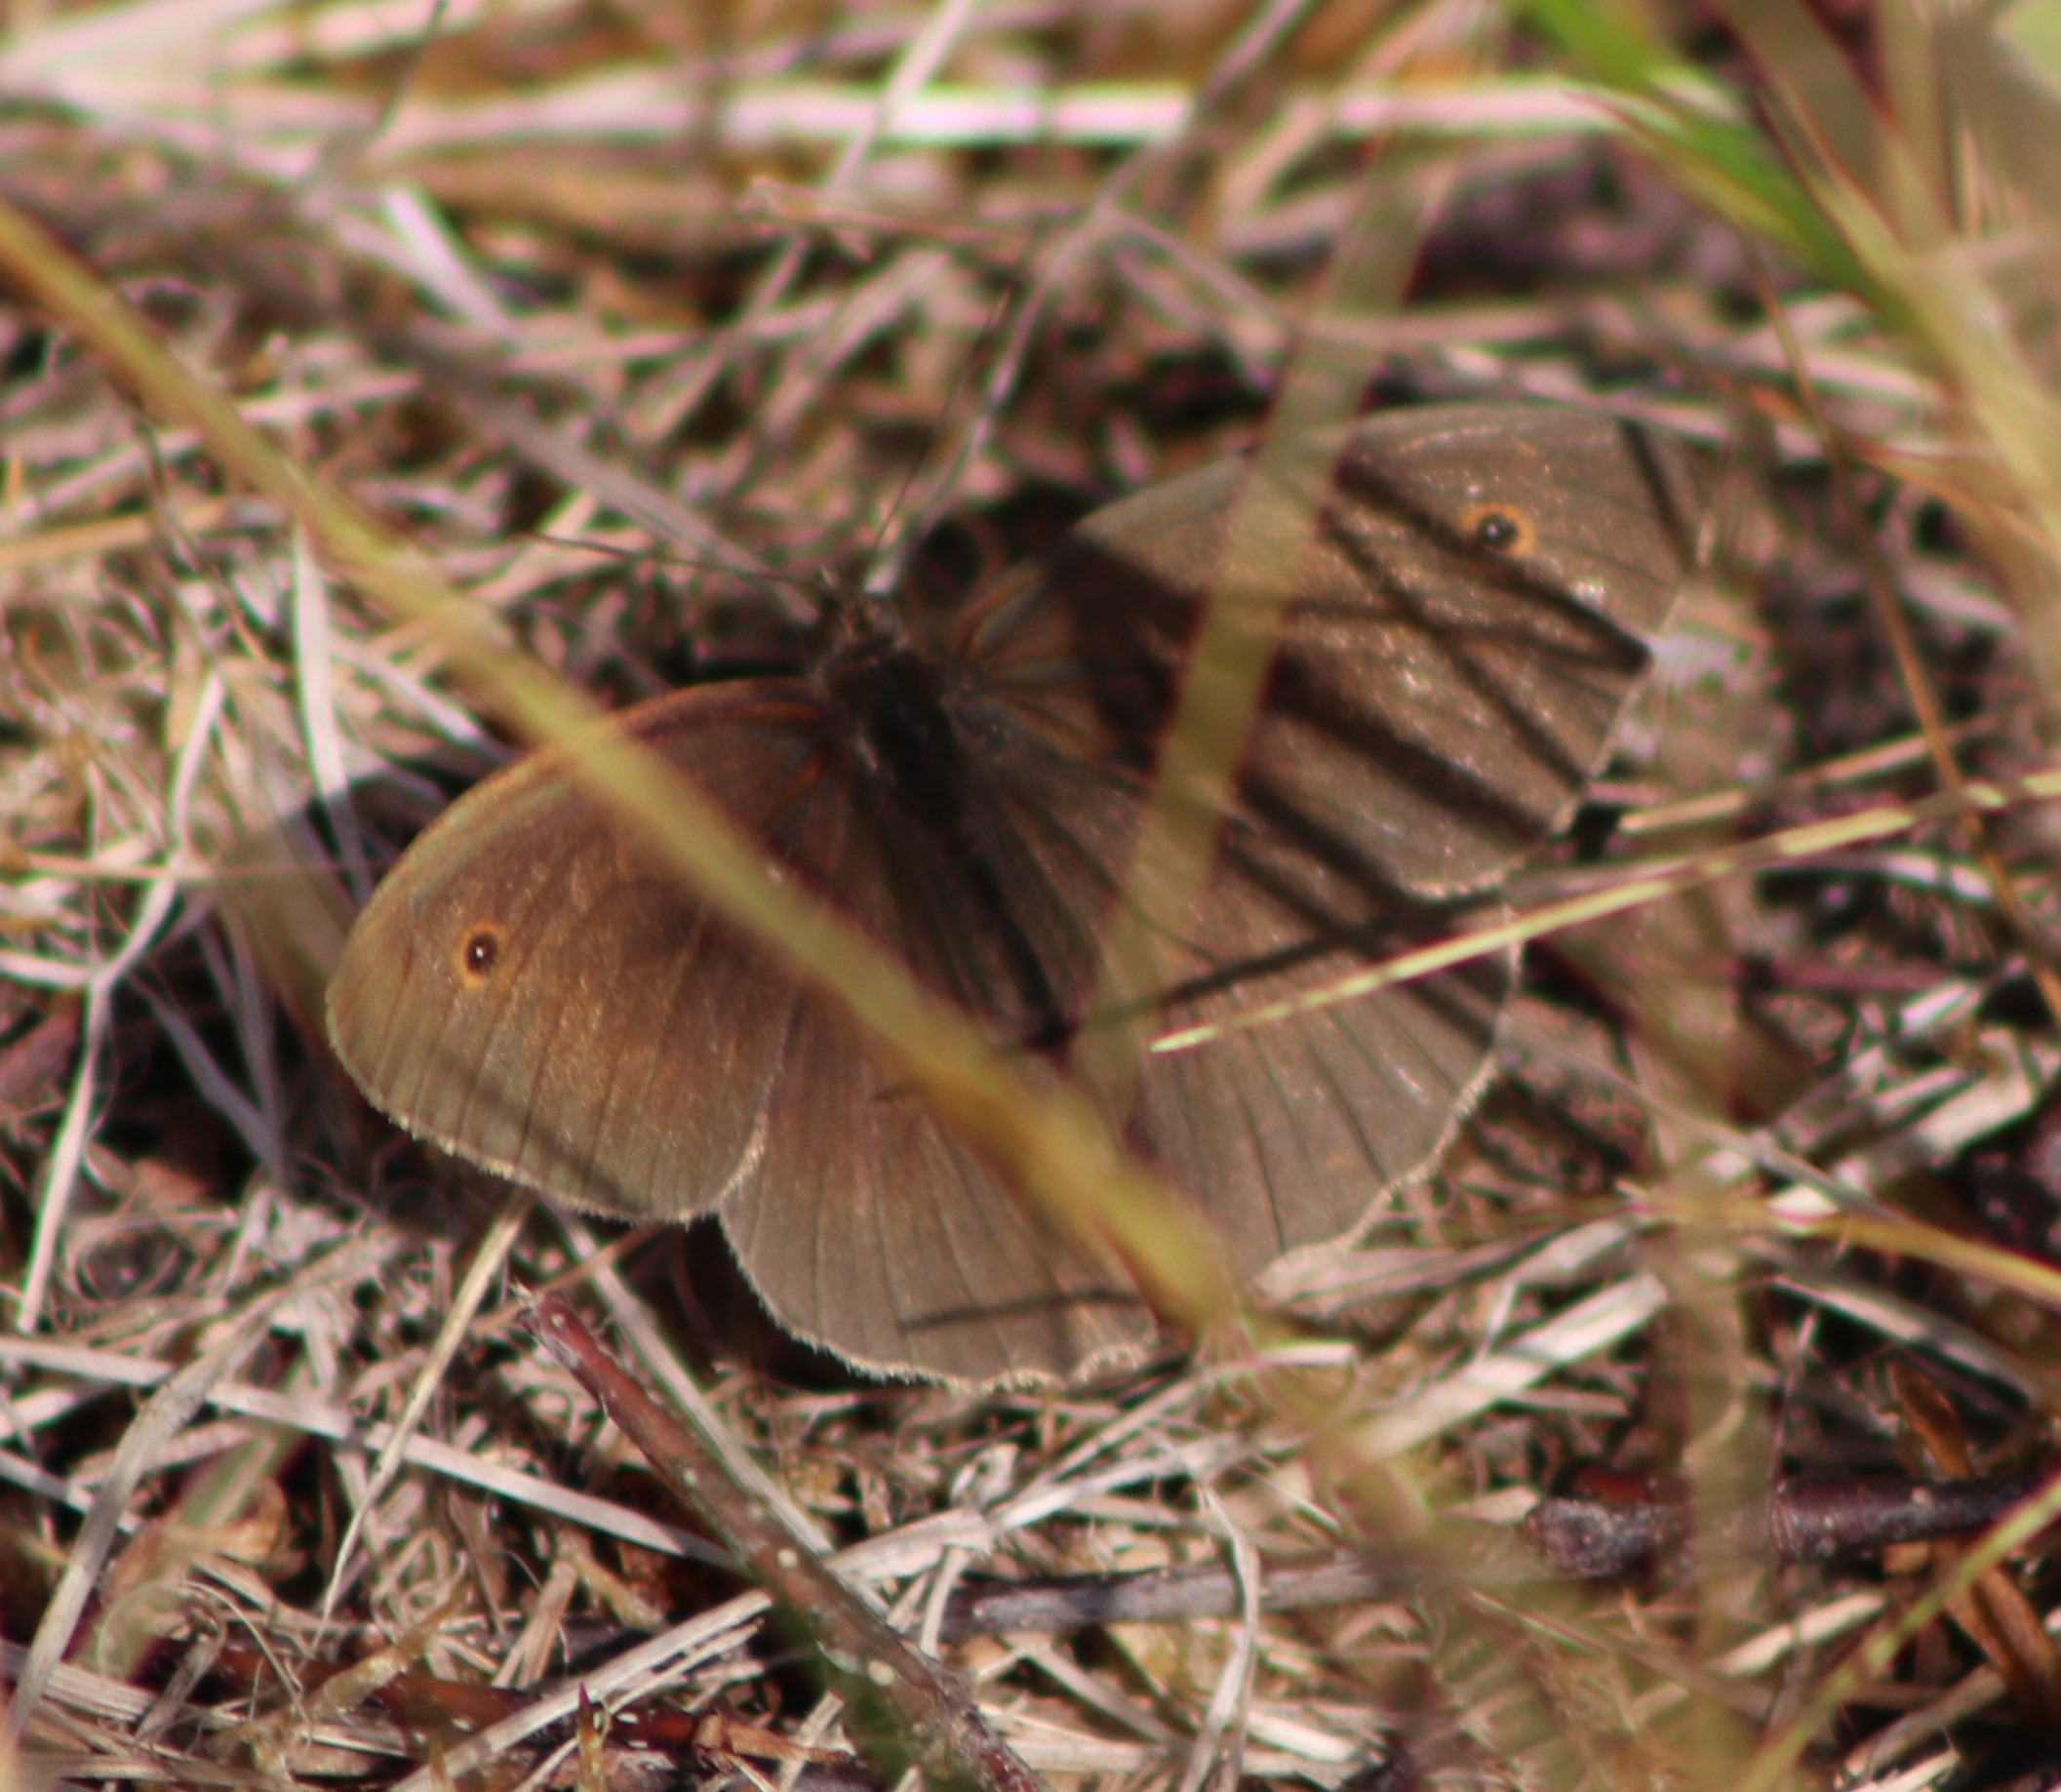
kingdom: Animalia
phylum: Arthropoda
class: Insecta
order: Lepidoptera
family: Nymphalidae
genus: Maniola
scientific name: Maniola jurtina
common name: Græsrandøje
